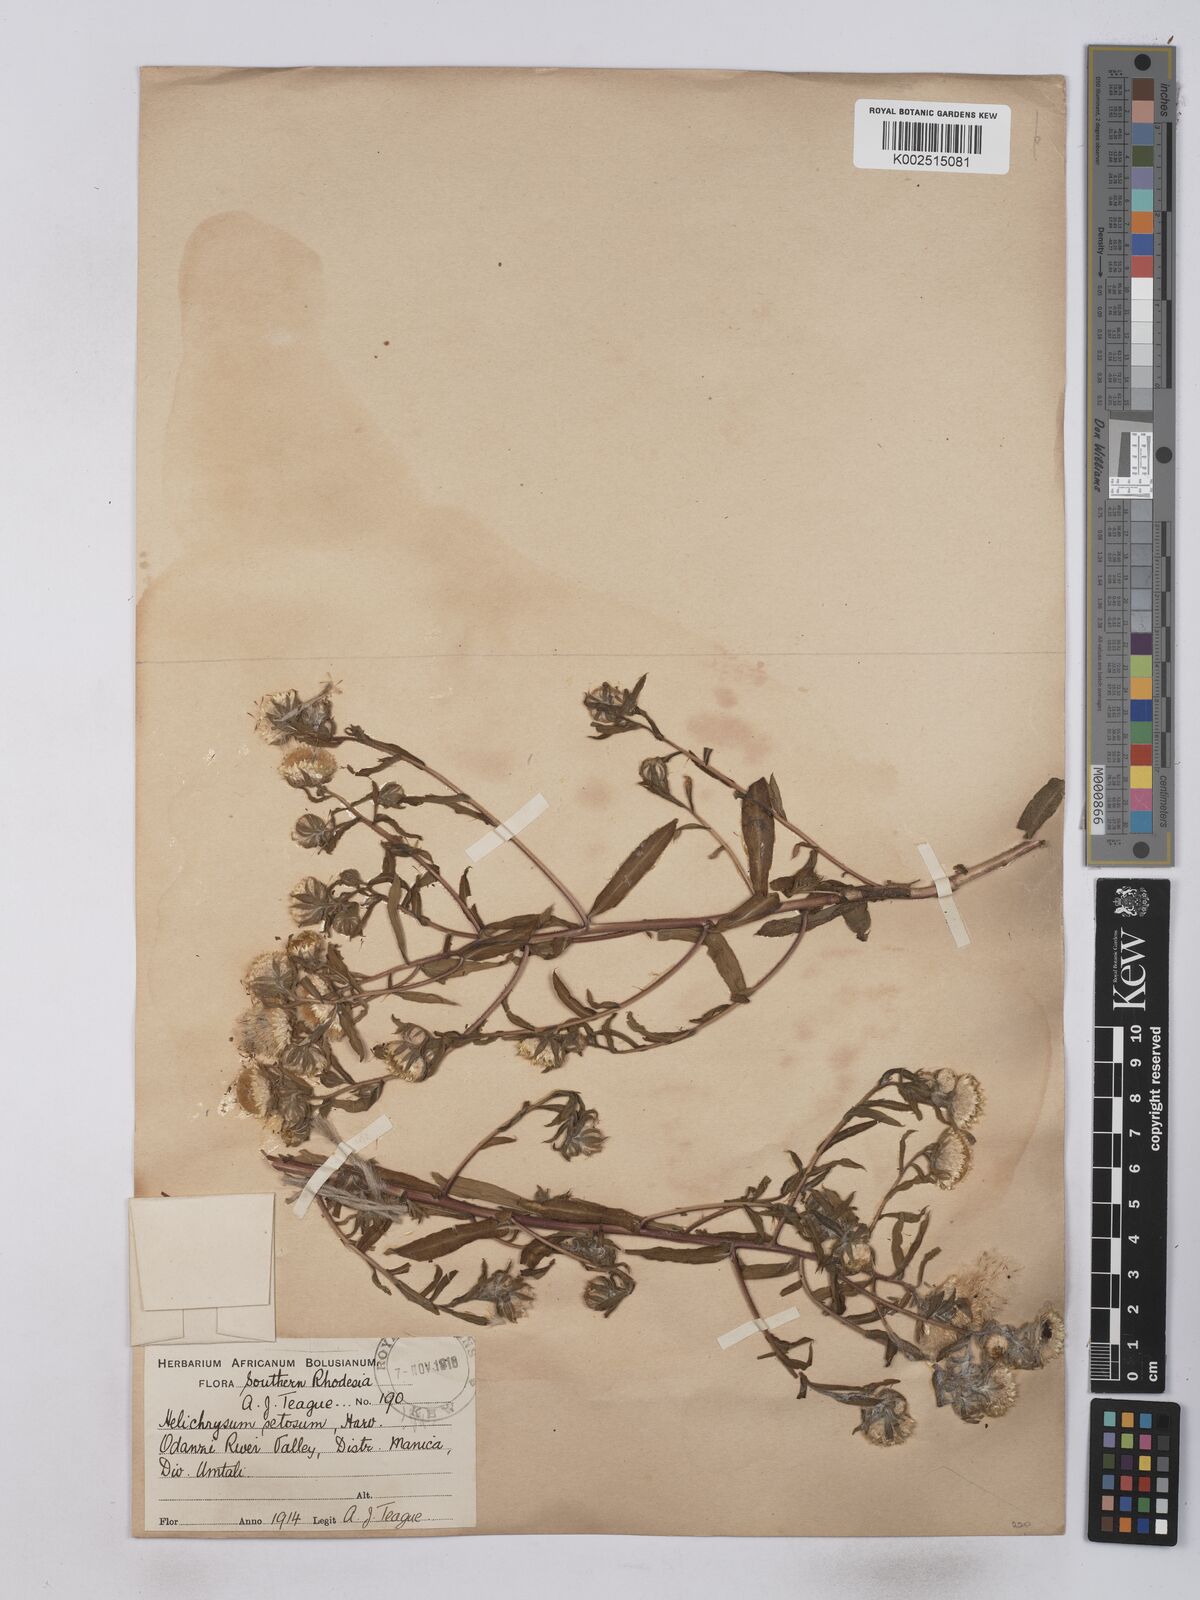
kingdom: Plantae
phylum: Tracheophyta
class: Magnoliopsida
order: Asterales
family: Asteraceae
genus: Helichrysum
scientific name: Helichrysum setosum
